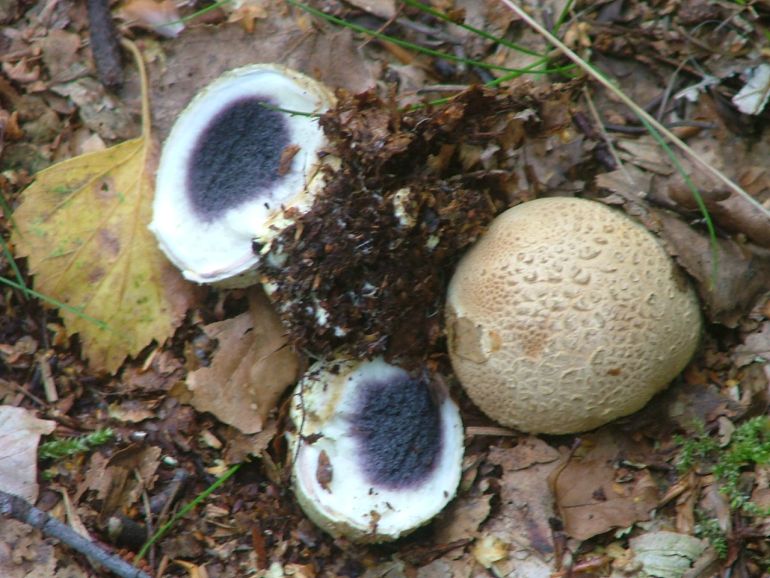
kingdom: Fungi
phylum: Basidiomycota
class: Agaricomycetes
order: Boletales
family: Sclerodermataceae
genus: Scleroderma
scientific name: Scleroderma citrinum
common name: almindelig bruskbold
